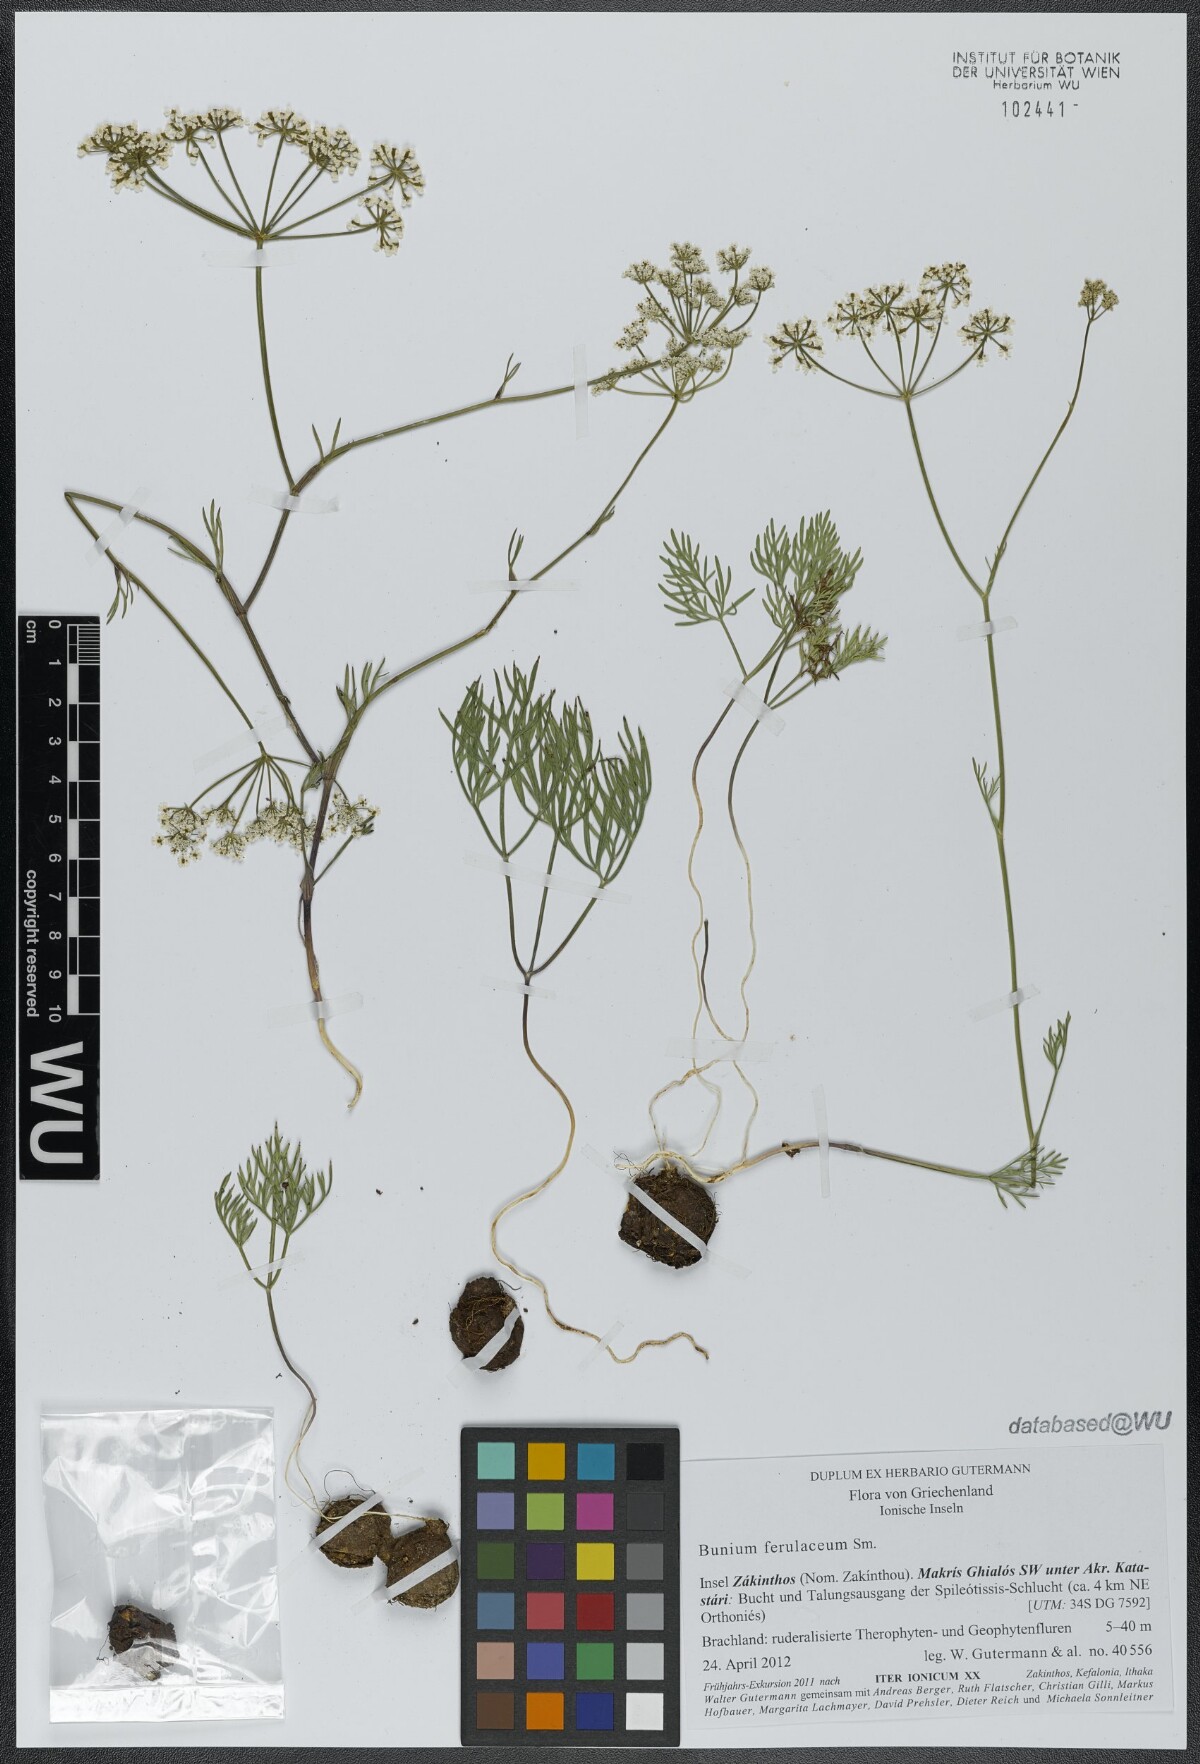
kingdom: Plantae
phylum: Tracheophyta
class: Magnoliopsida
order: Apiales
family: Apiaceae
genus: Bunium
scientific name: Bunium ferulaceum
